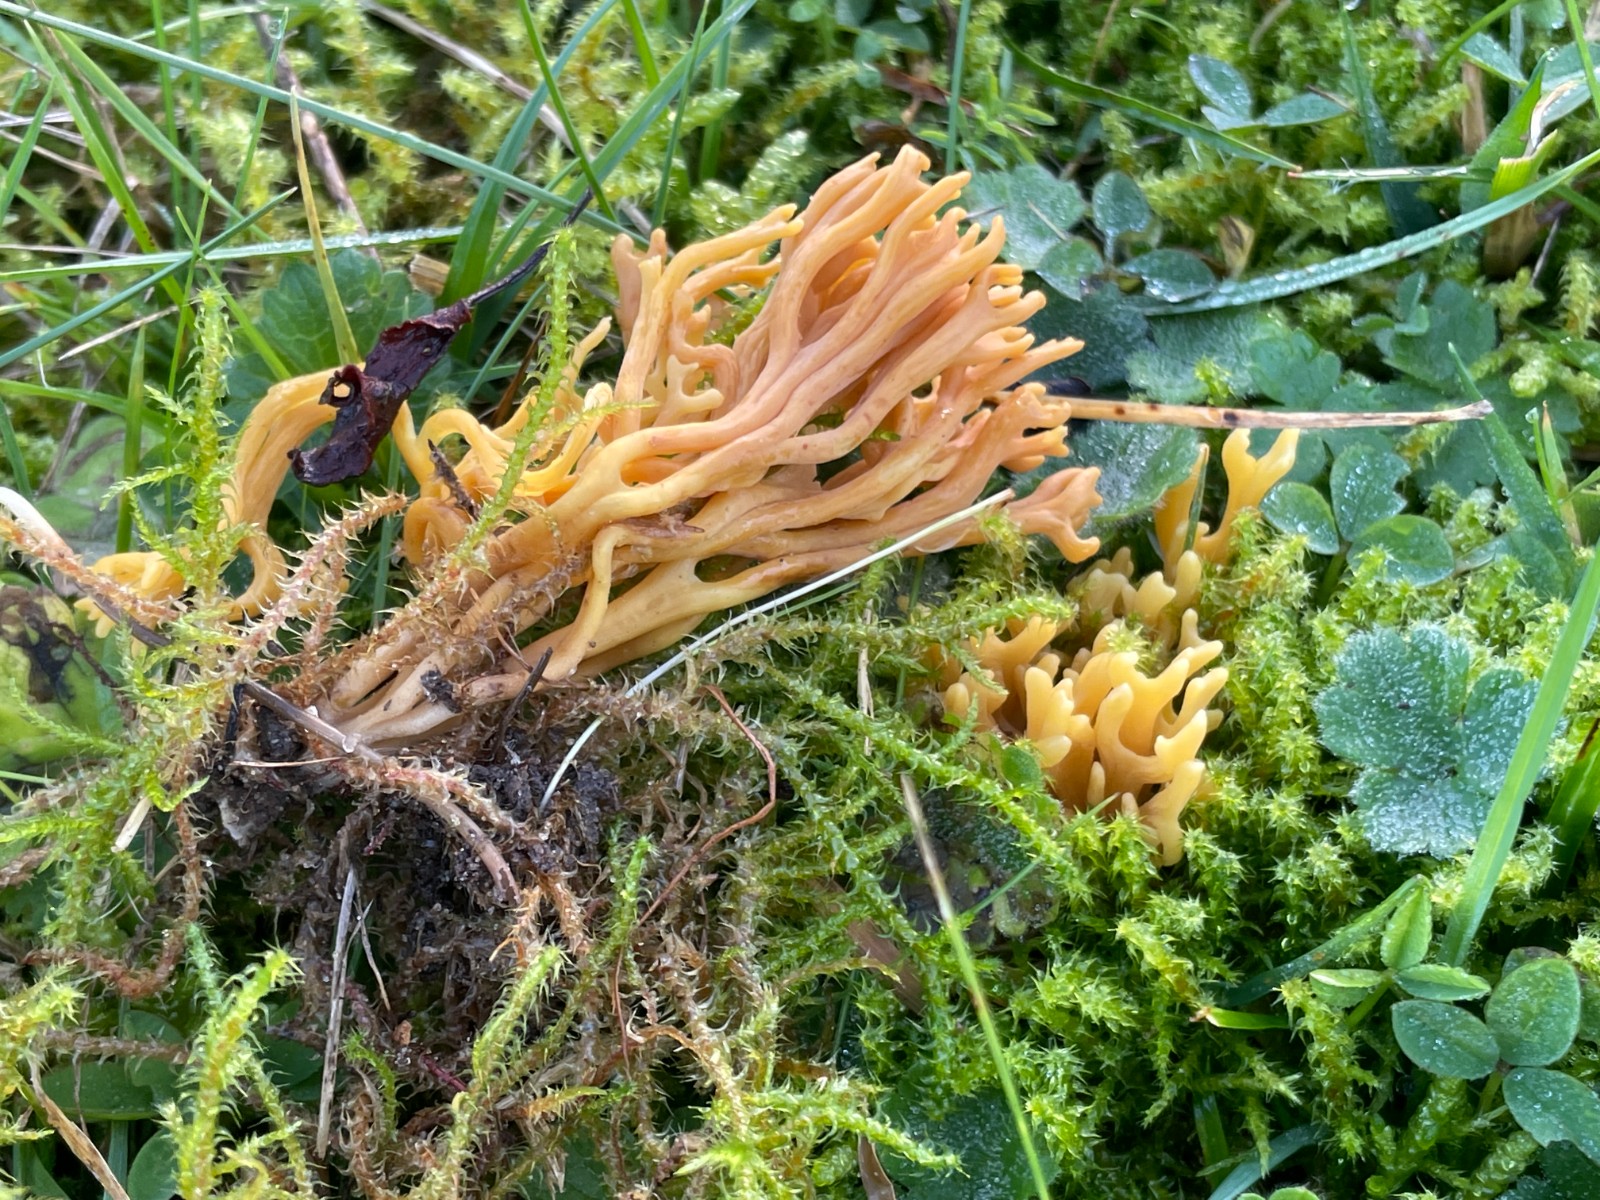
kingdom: Fungi
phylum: Basidiomycota
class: Agaricomycetes
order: Agaricales
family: Clavariaceae
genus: Clavulinopsis
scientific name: Clavulinopsis corniculata
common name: eng-køllesvamp
